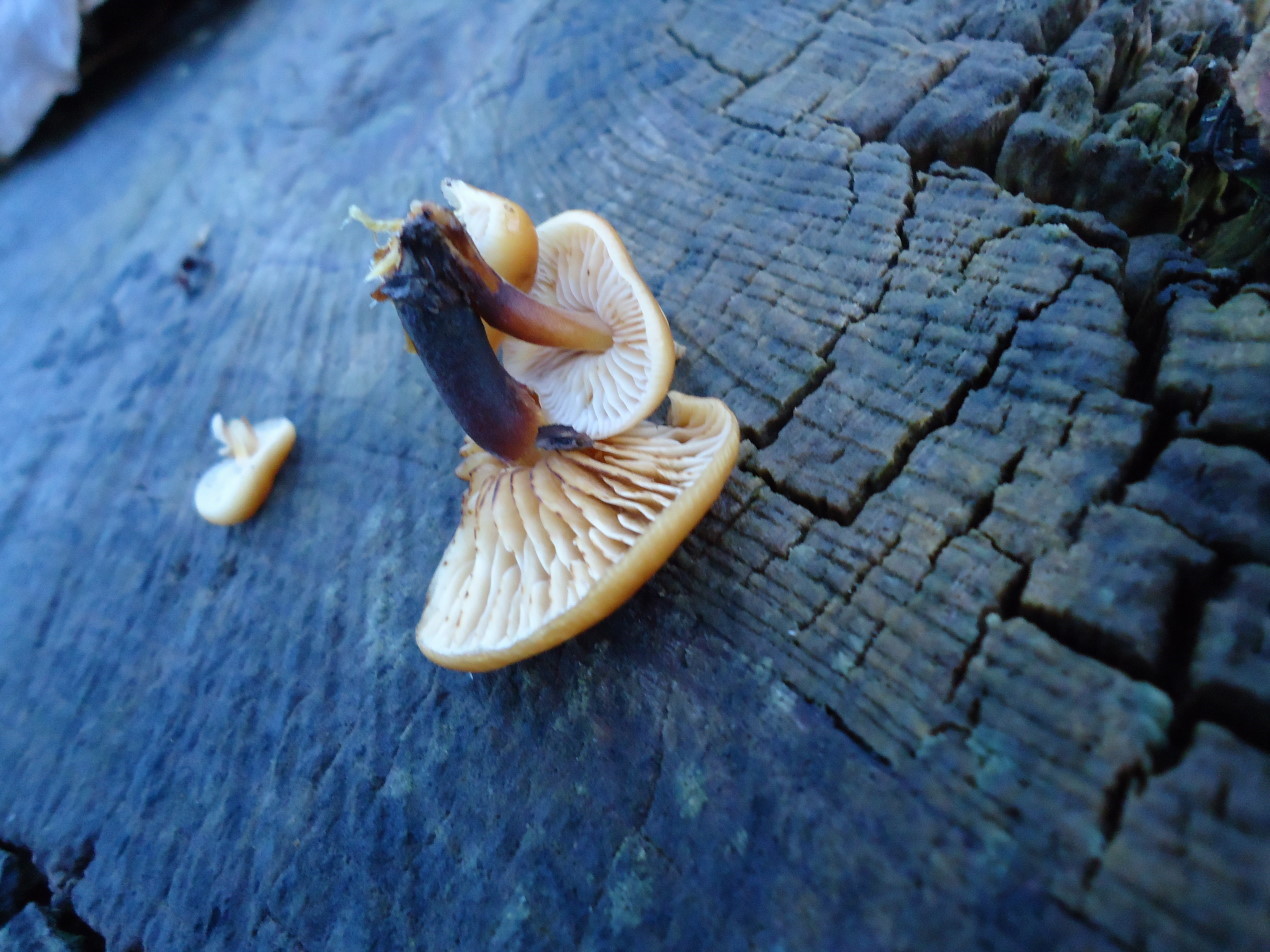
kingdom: Fungi
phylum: Basidiomycota
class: Agaricomycetes
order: Agaricales
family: Physalacriaceae
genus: Flammulina
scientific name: Flammulina velutipes
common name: gul fløjlsfod
